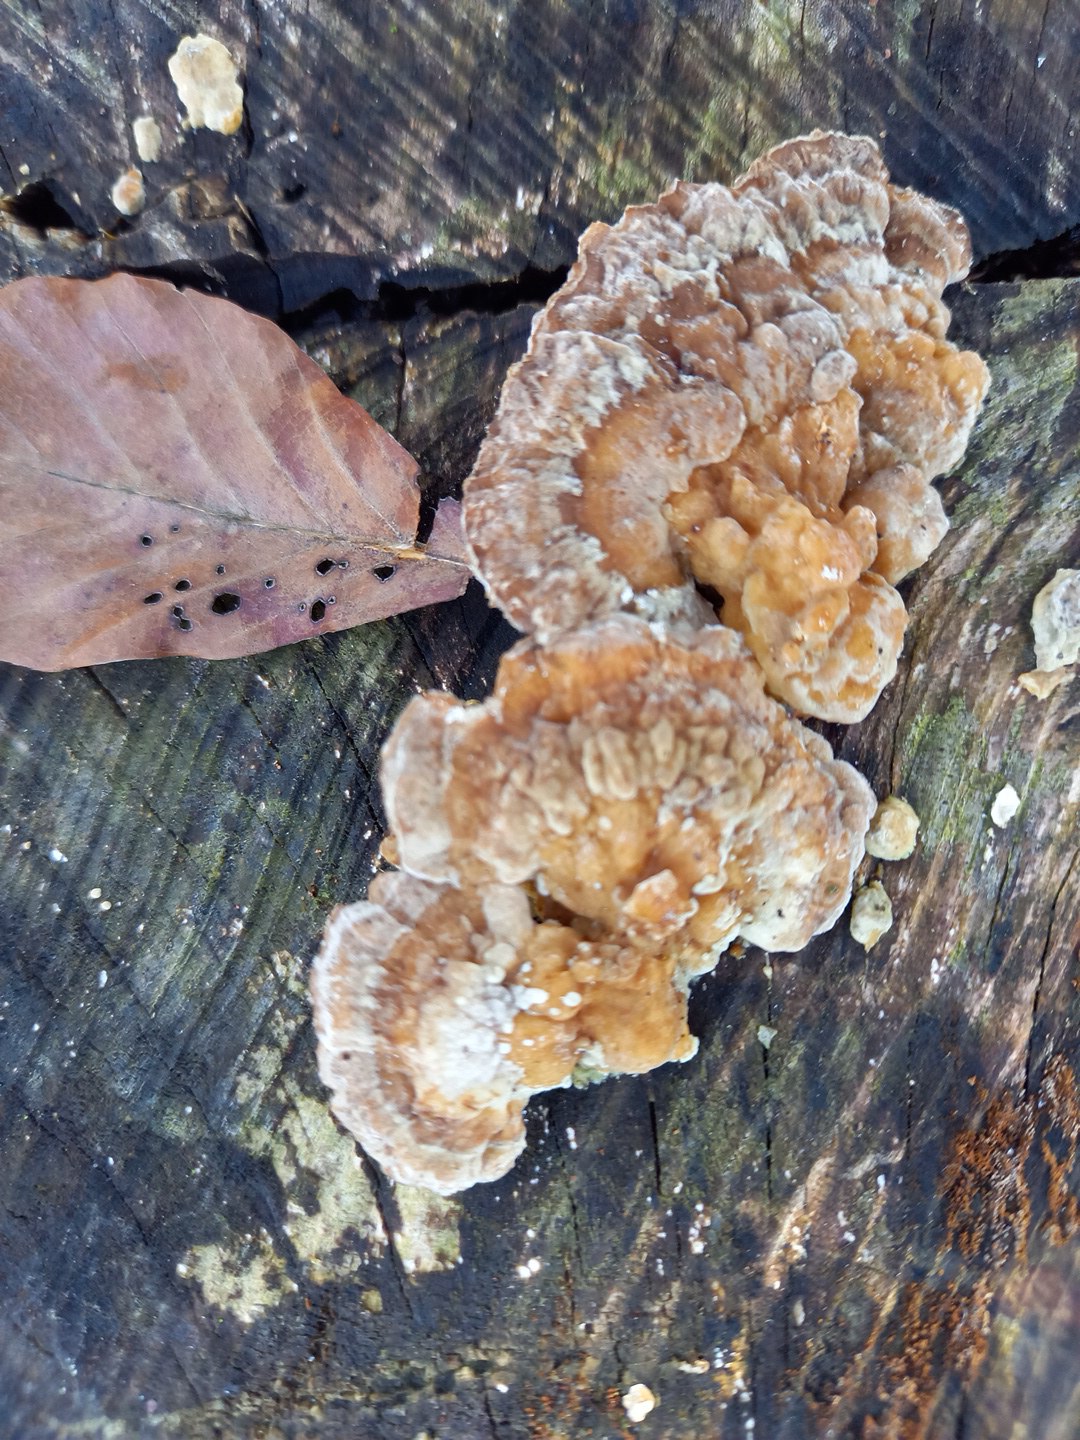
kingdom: Fungi
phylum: Basidiomycota
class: Agaricomycetes
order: Polyporales
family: Polyporaceae
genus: Trametes
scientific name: Trametes ochracea
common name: bæltet læderporesvamp
